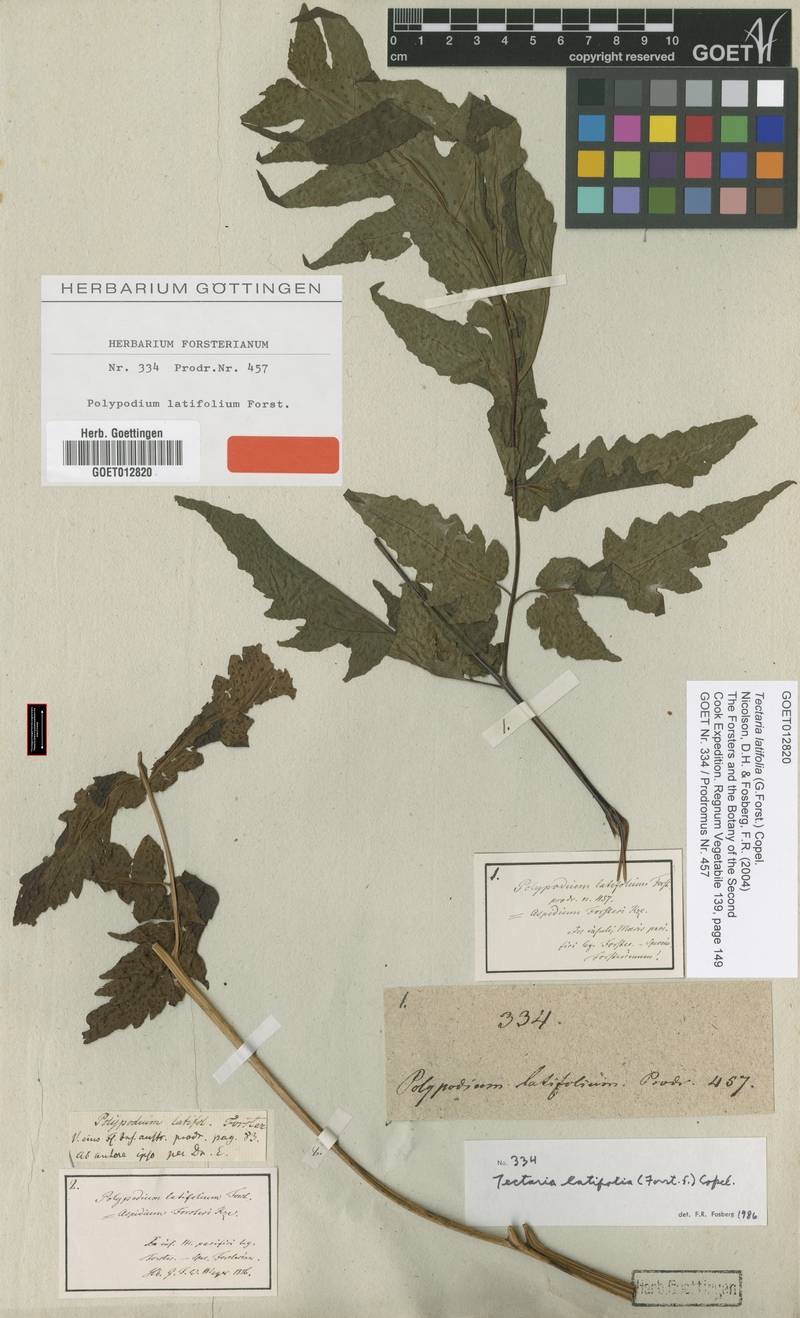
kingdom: Plantae
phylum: Tracheophyta
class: Polypodiopsida
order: Polypodiales
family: Tectariaceae
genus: Tectaria
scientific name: Tectaria latifolia
